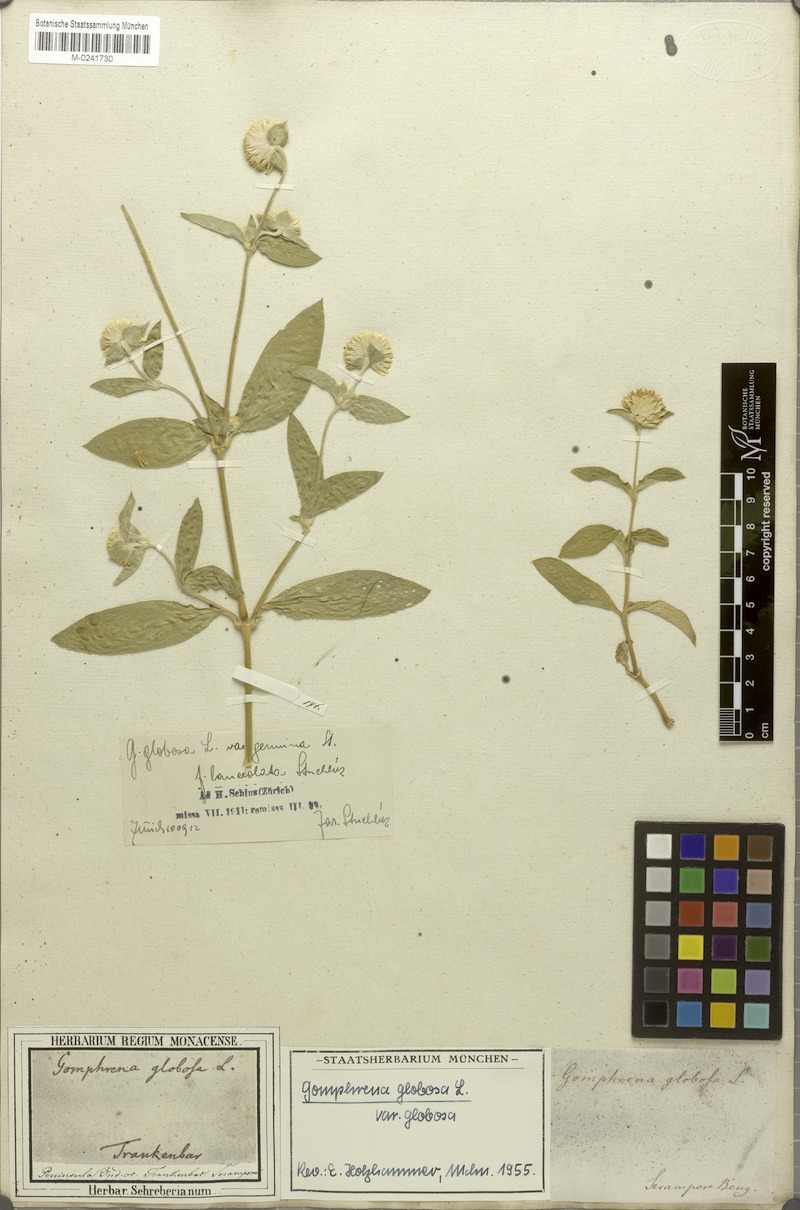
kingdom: Plantae
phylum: Tracheophyta
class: Magnoliopsida
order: Caryophyllales
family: Amaranthaceae
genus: Gomphrena
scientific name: Gomphrena globosa
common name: Common globe amaranth
